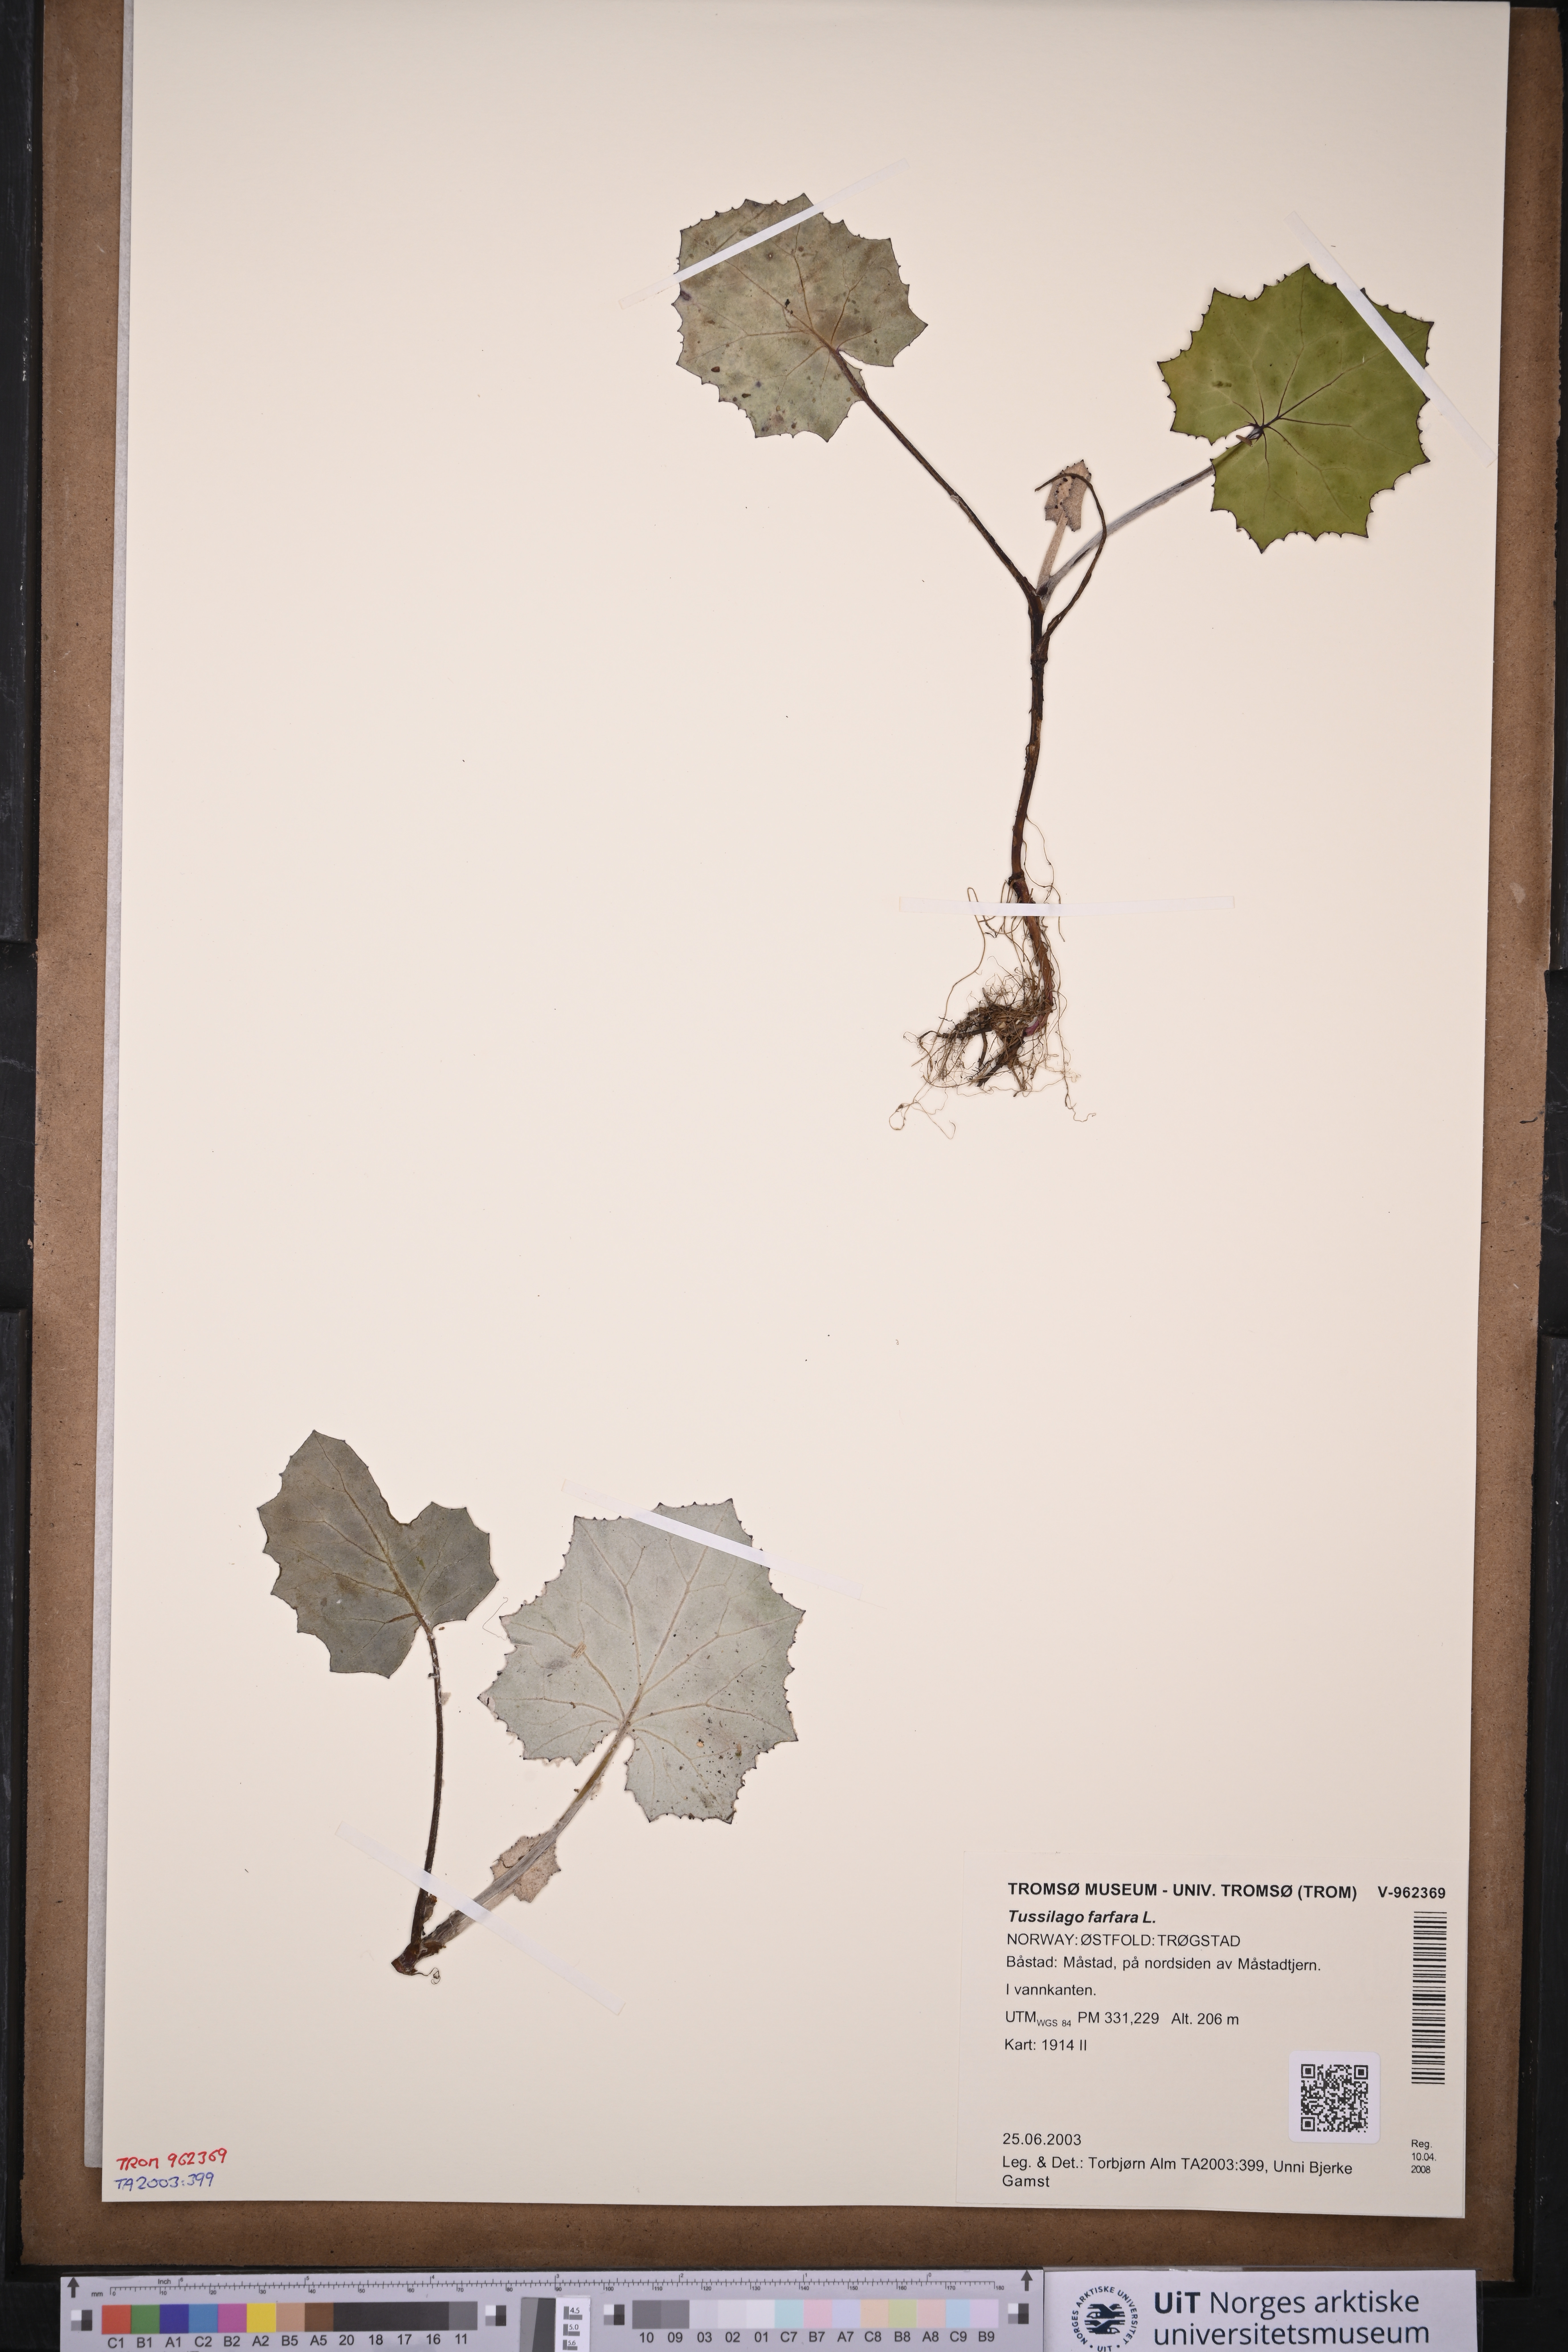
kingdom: Plantae
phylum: Tracheophyta
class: Magnoliopsida
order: Asterales
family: Asteraceae
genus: Tussilago
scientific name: Tussilago farfara
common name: Coltsfoot
